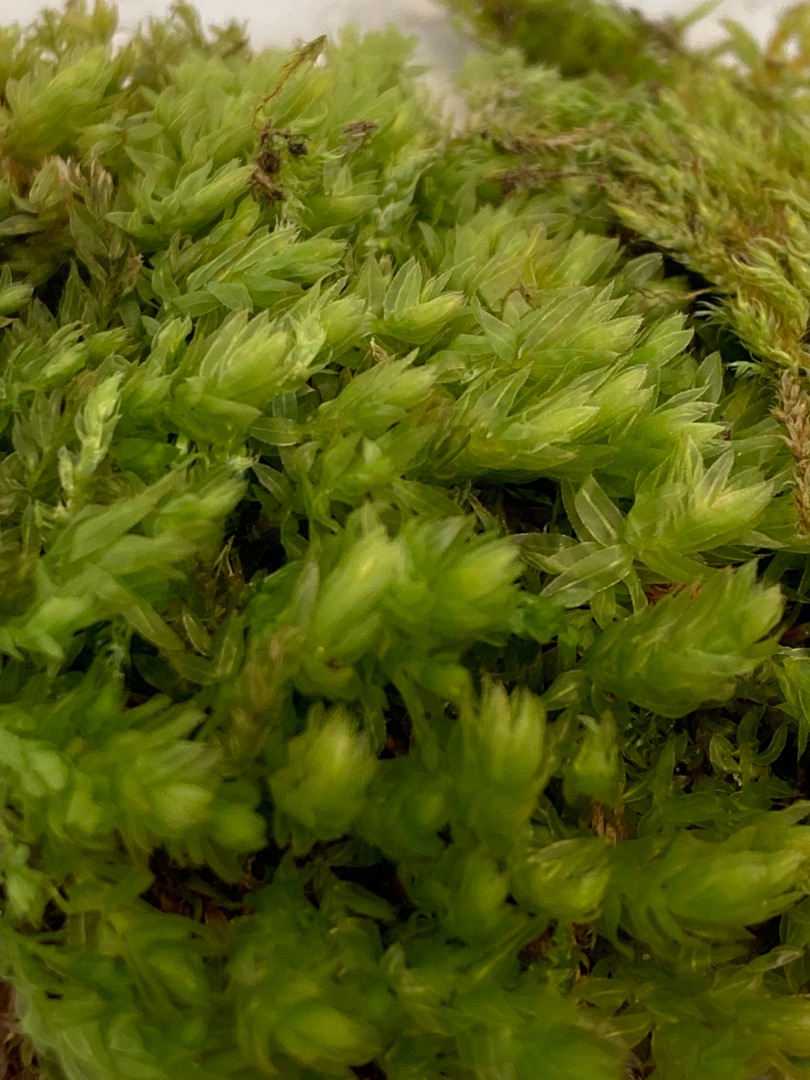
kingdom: Plantae
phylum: Bryophyta
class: Bryopsida
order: Bryales
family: Mniaceae
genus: Mnium
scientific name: Mnium hornum
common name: Brunfiltet stjernemos
